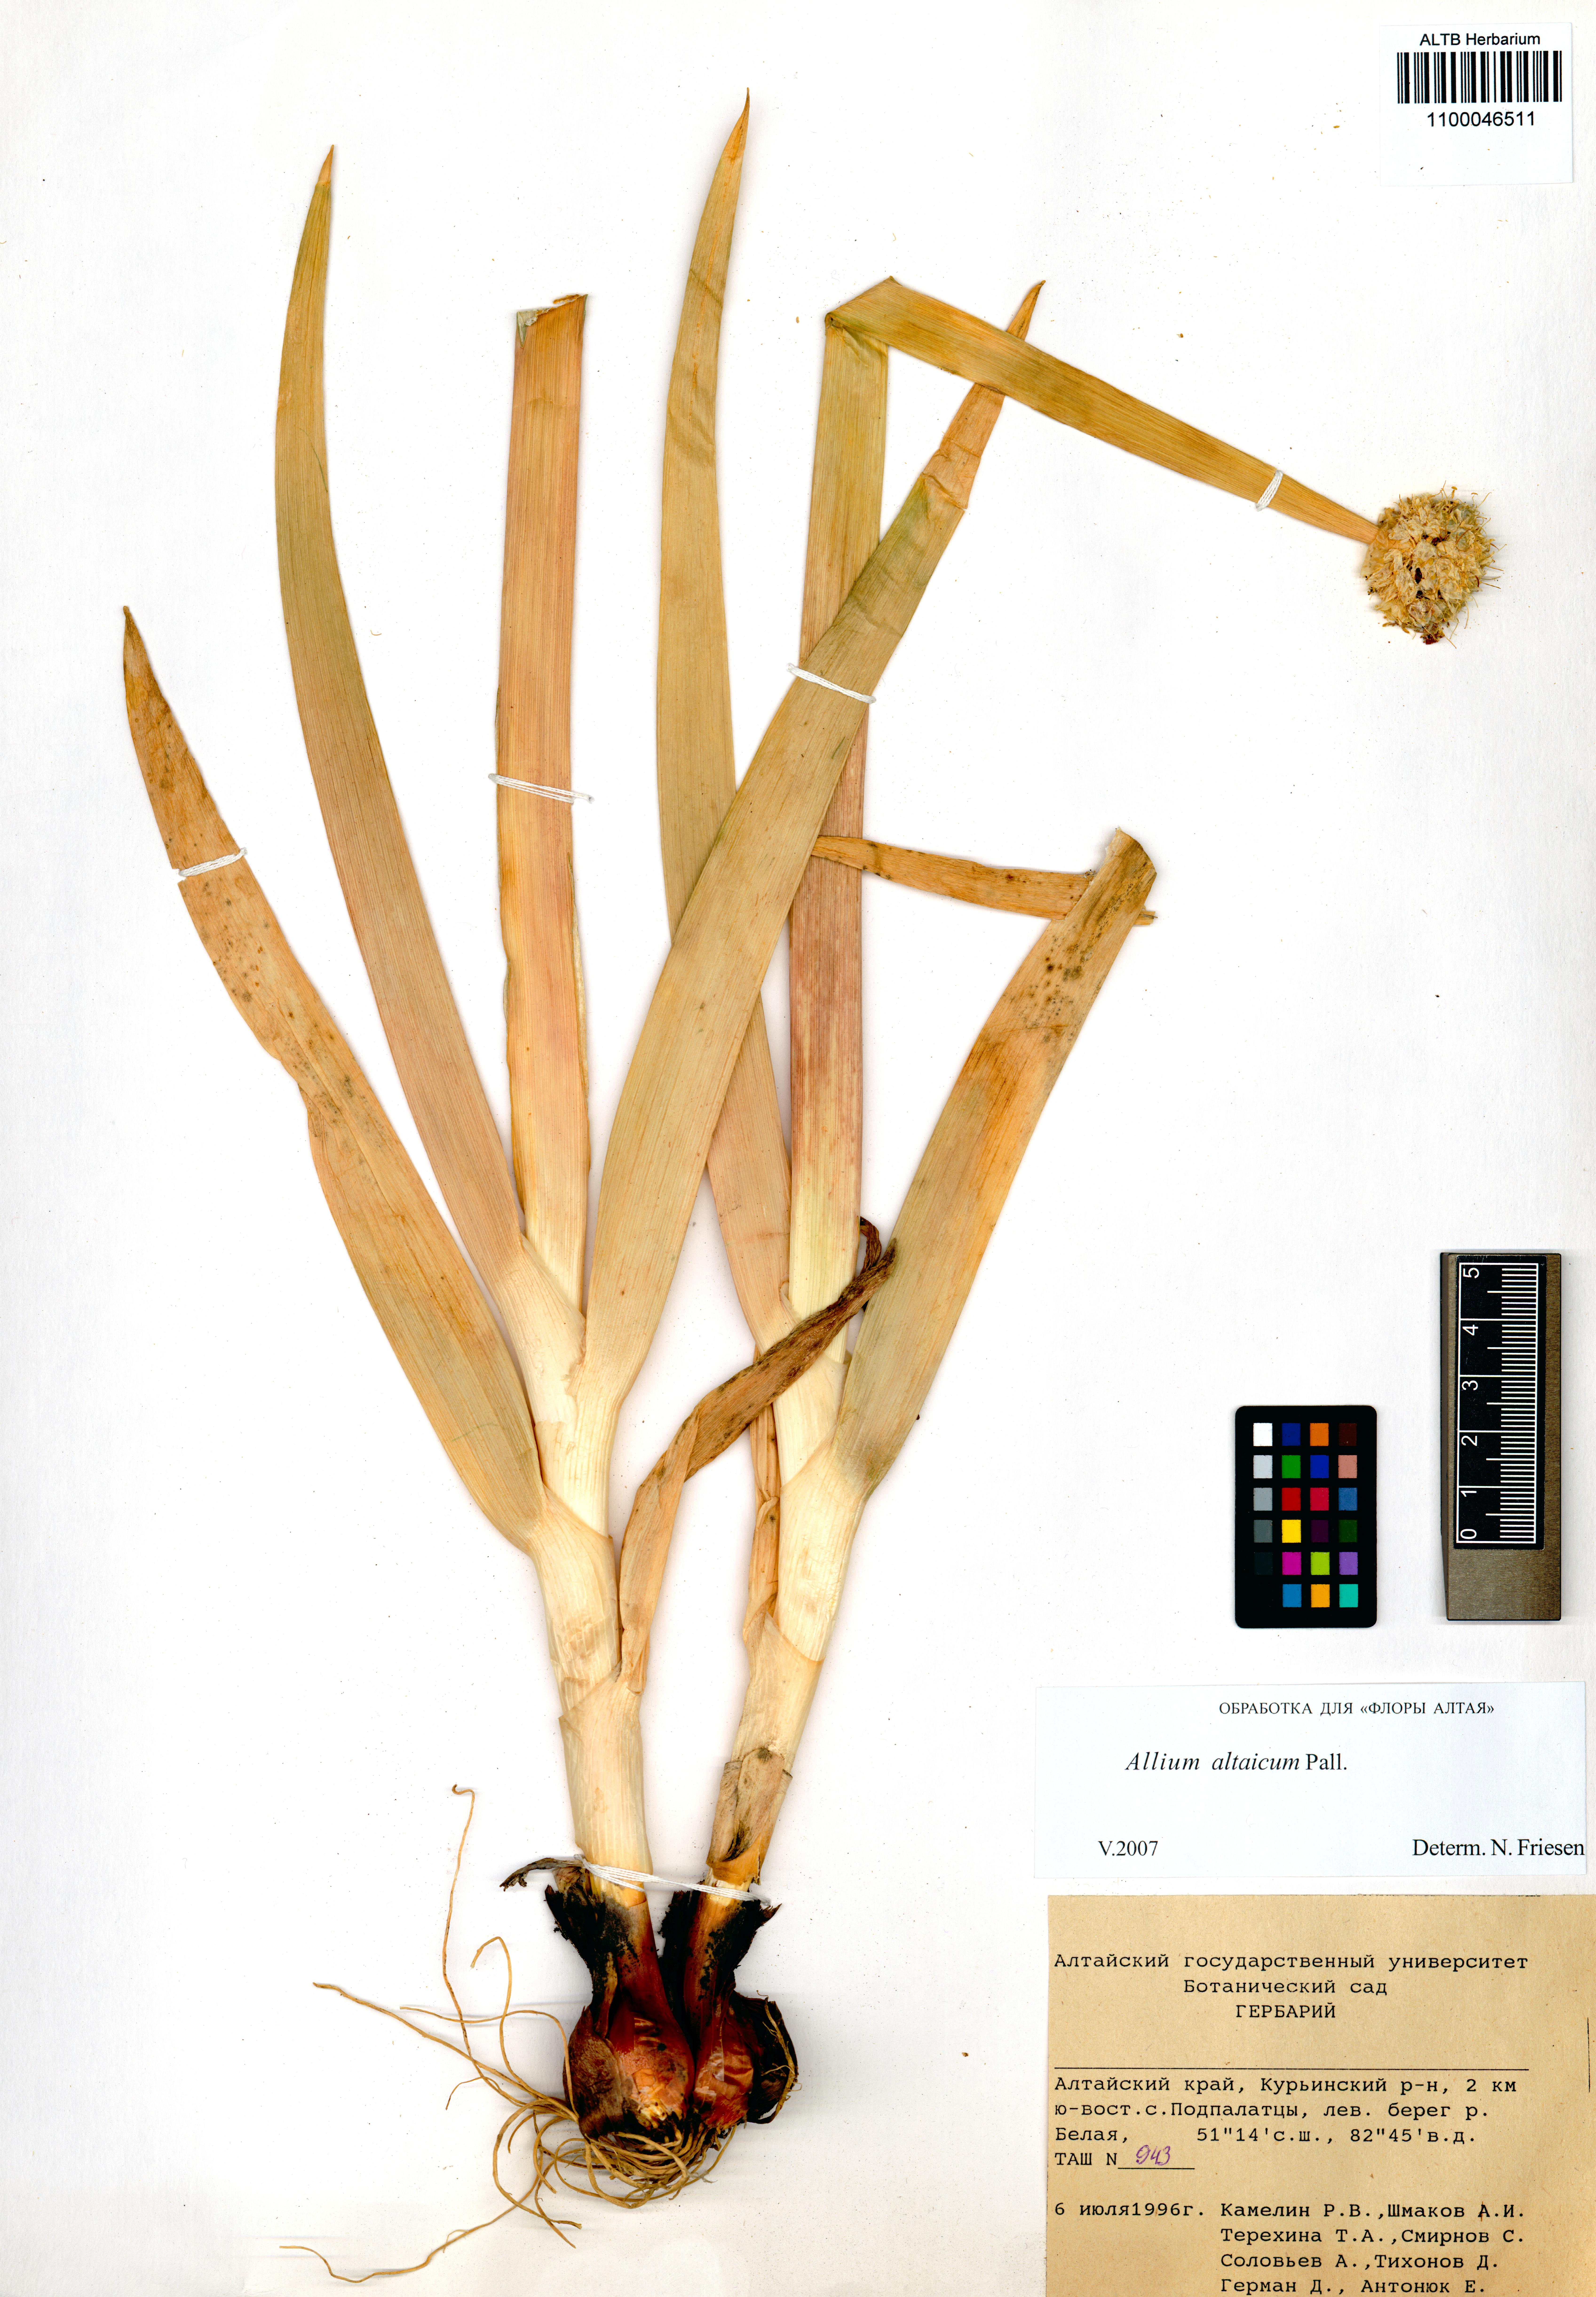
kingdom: Plantae
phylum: Tracheophyta
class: Liliopsida
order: Asparagales
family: Amaryllidaceae
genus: Allium
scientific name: Allium altaicum
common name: Altai onion
